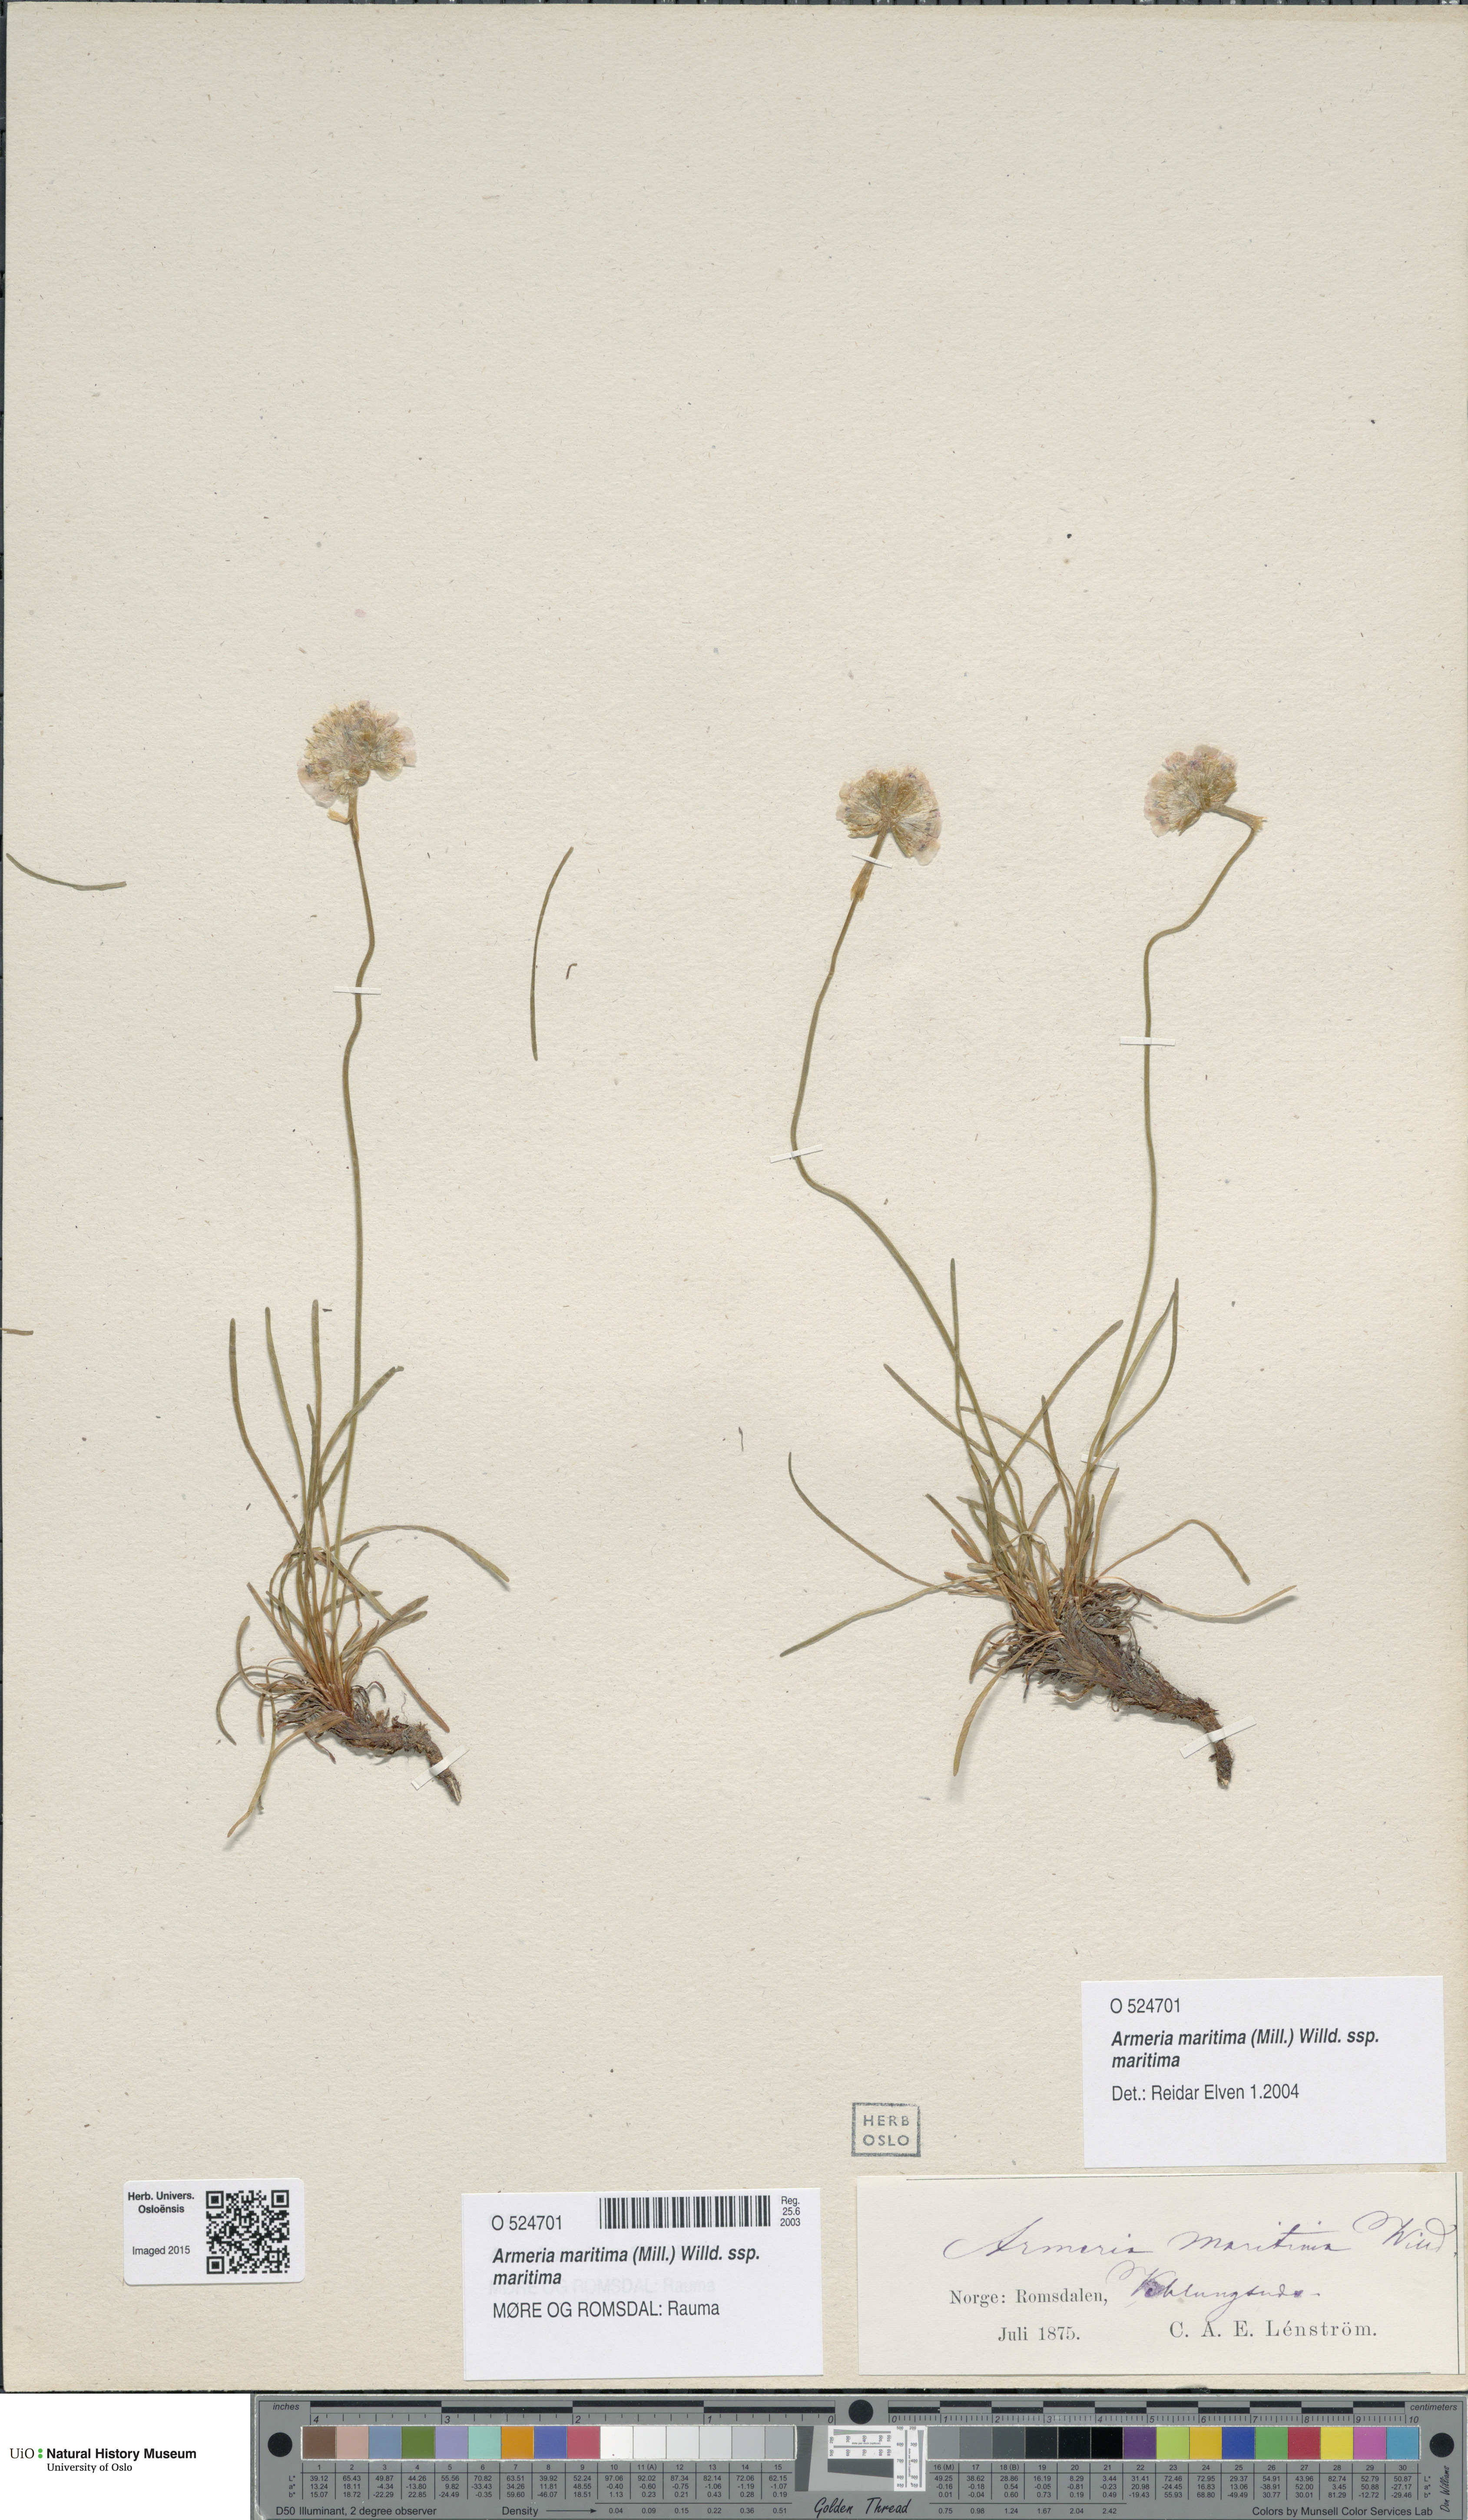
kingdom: Plantae
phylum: Tracheophyta
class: Magnoliopsida
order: Caryophyllales
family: Plumbaginaceae
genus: Armeria
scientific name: Armeria maritima
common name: Thrift
